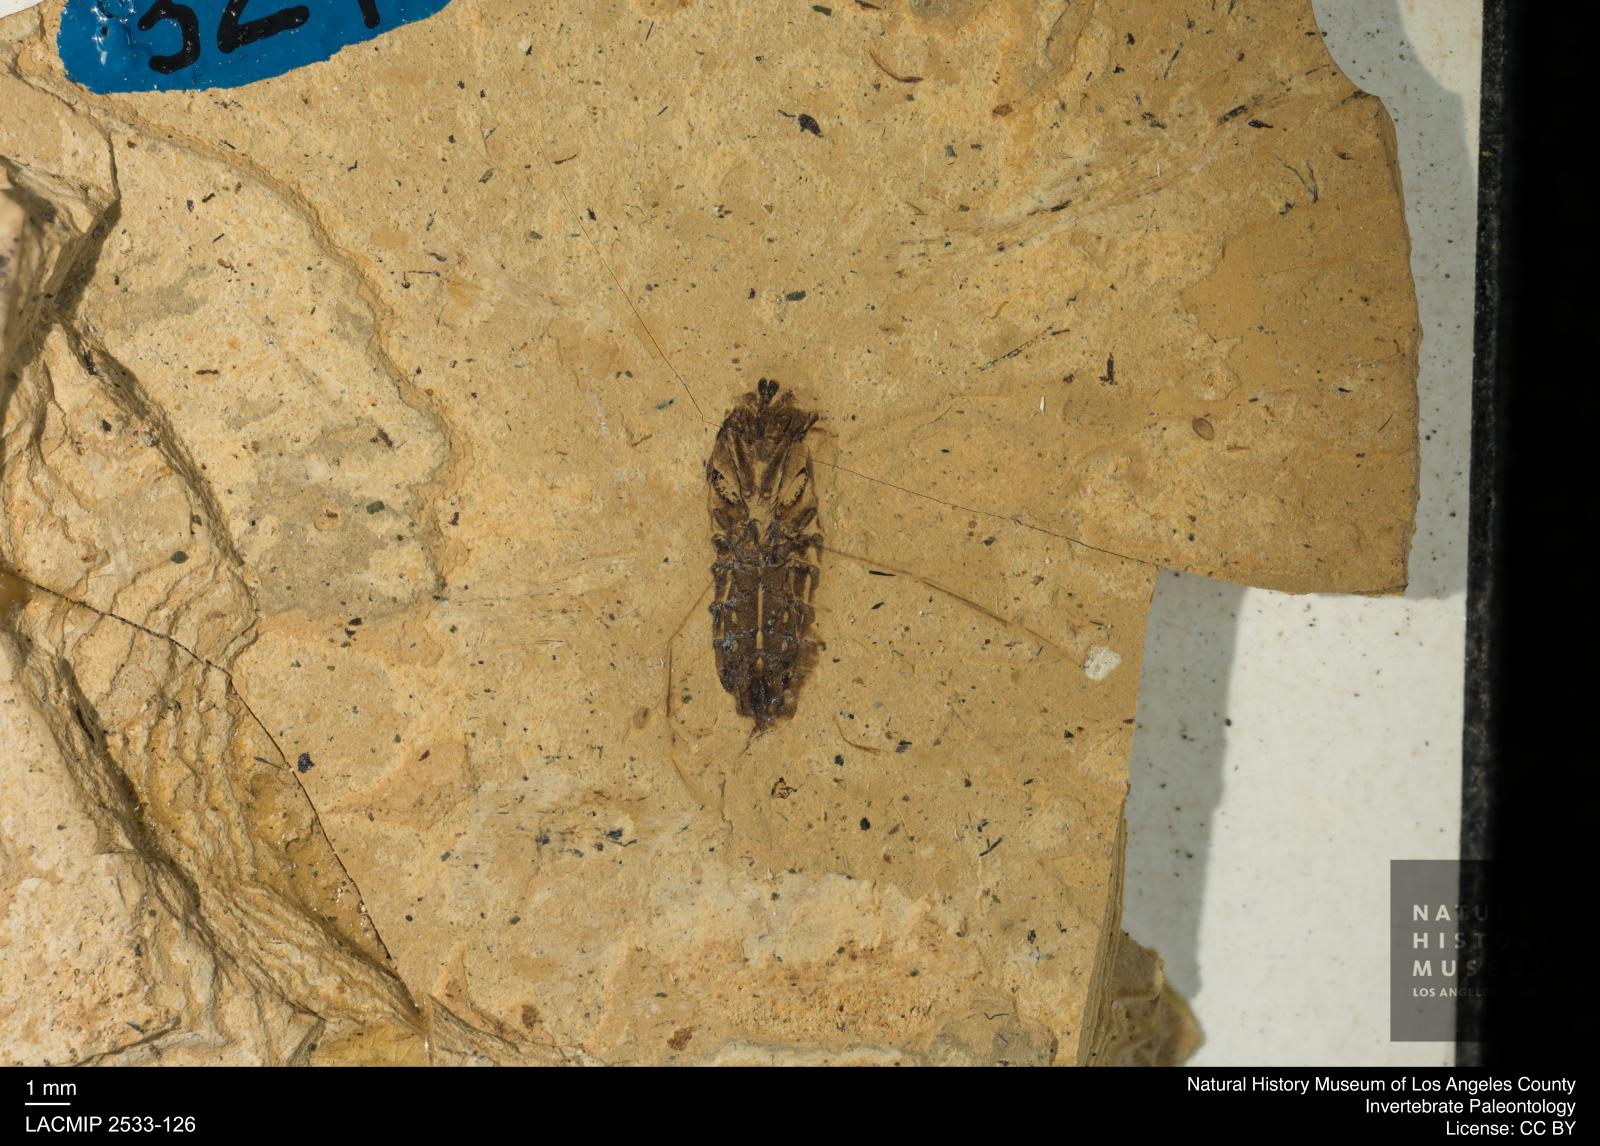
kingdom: Animalia
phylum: Arthropoda
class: Insecta
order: Hemiptera
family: Notonectidae
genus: Anisops
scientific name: Anisops Notonecta heydeni
